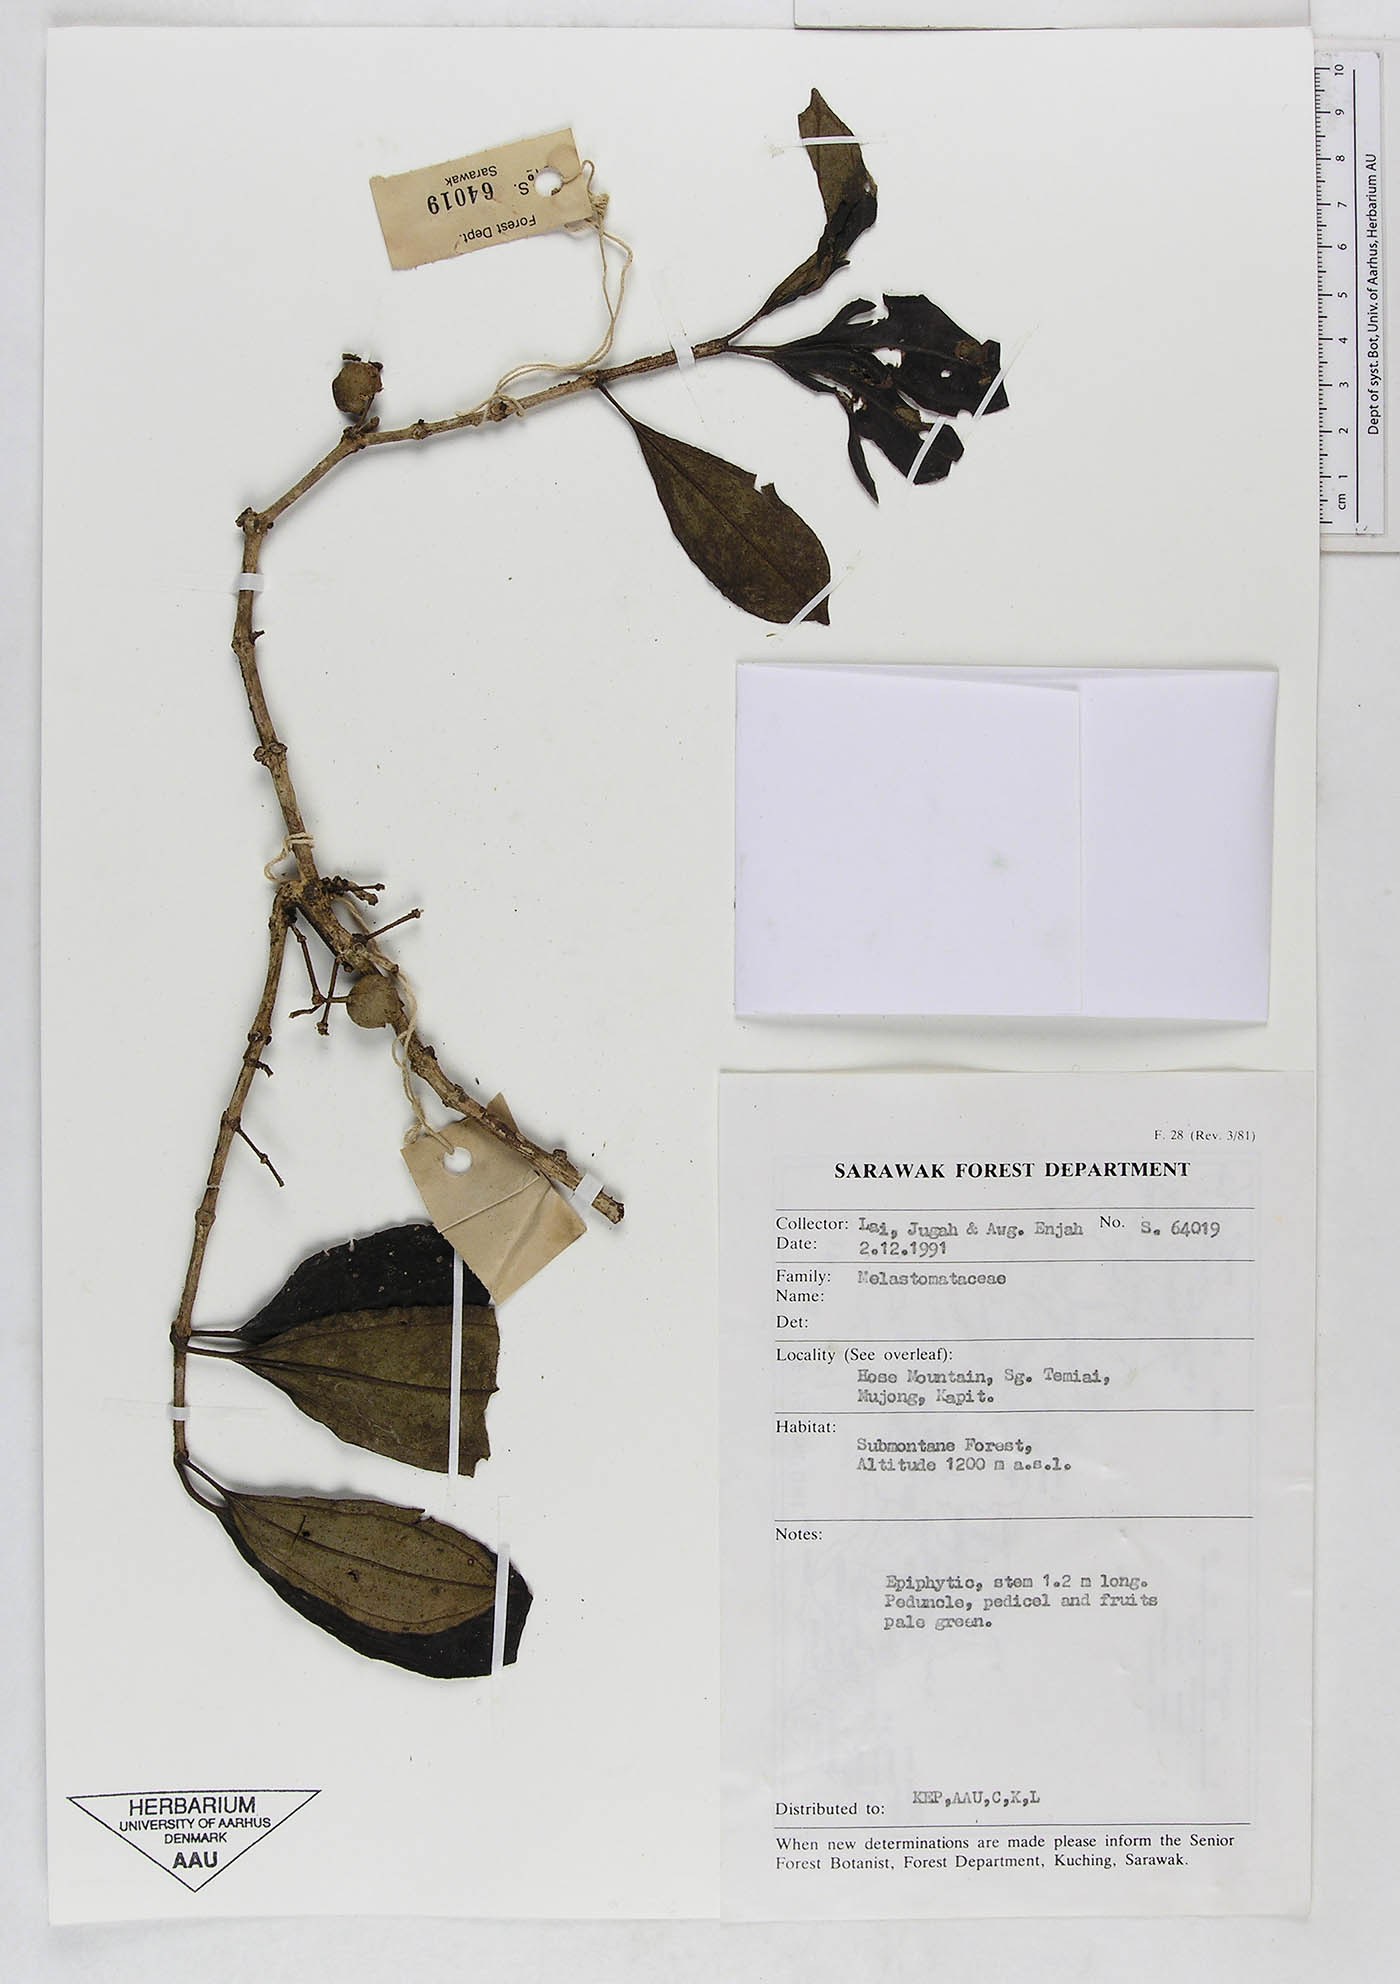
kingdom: Plantae
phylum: Tracheophyta
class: Magnoliopsida
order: Myrtales
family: Melastomataceae
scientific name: Melastomataceae
